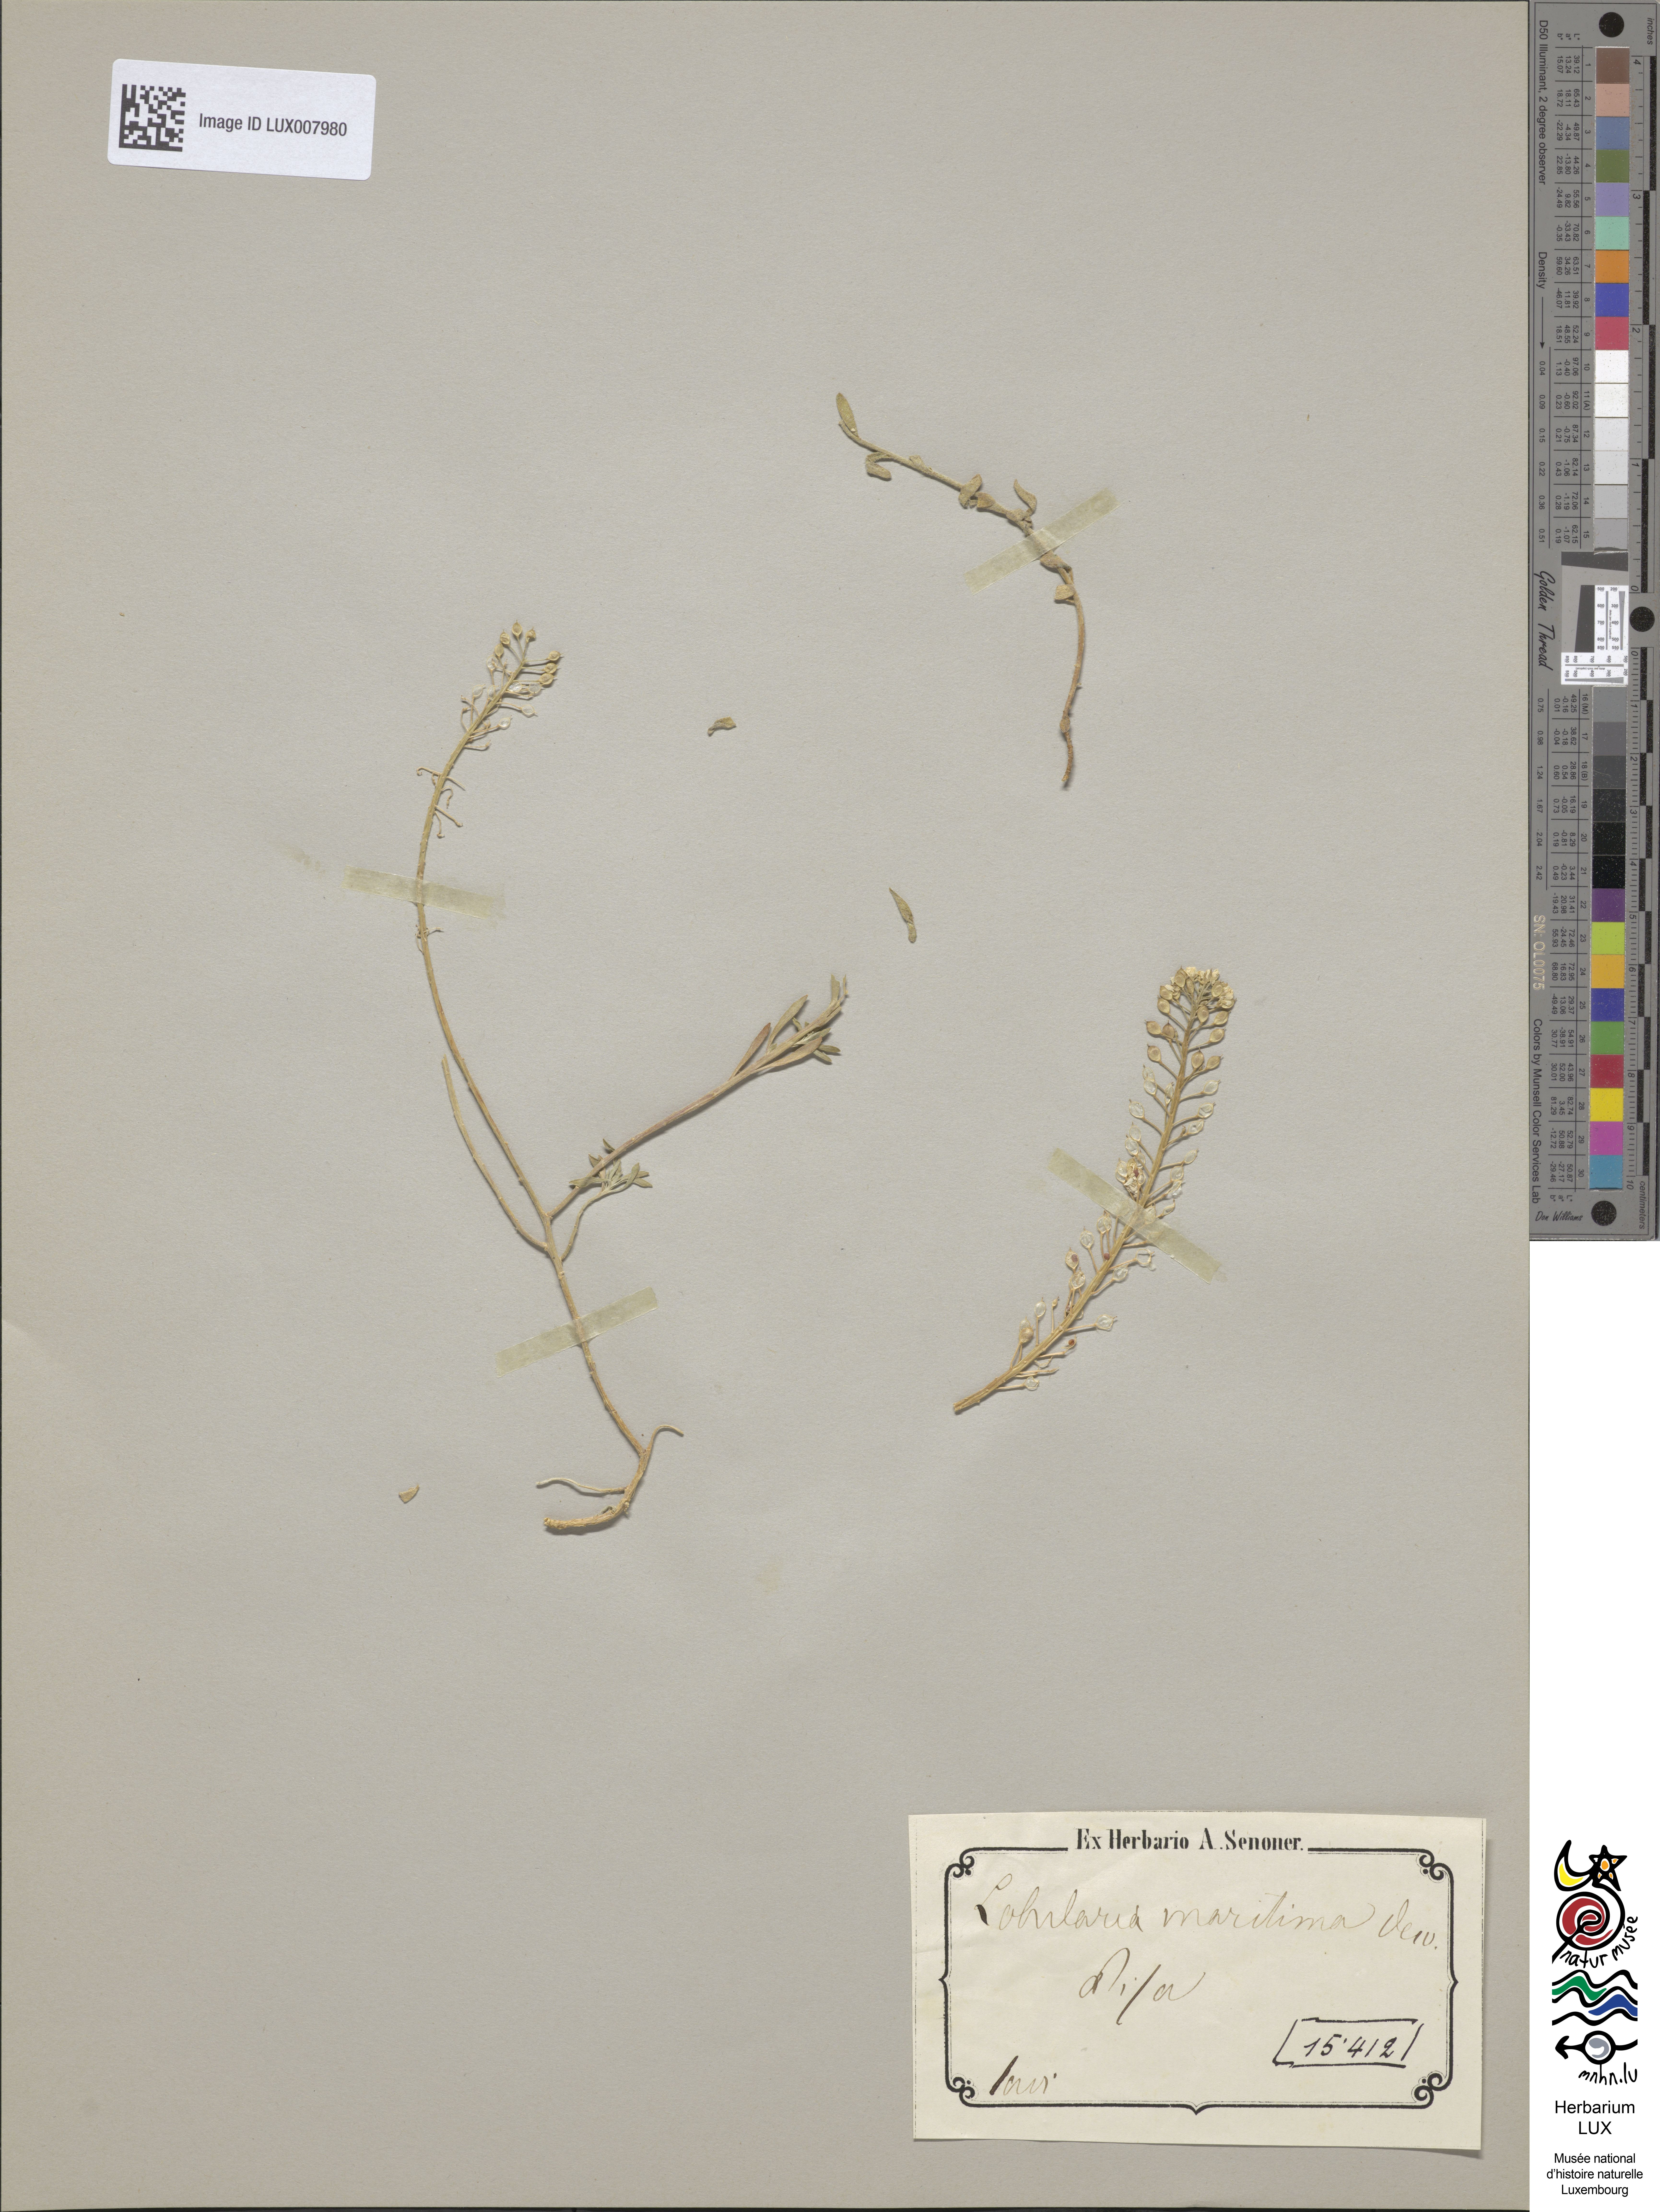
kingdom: Plantae
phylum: Tracheophyta
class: Magnoliopsida
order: Brassicales
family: Brassicaceae
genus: Lobularia
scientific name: Lobularia maritima
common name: Sweet alison
